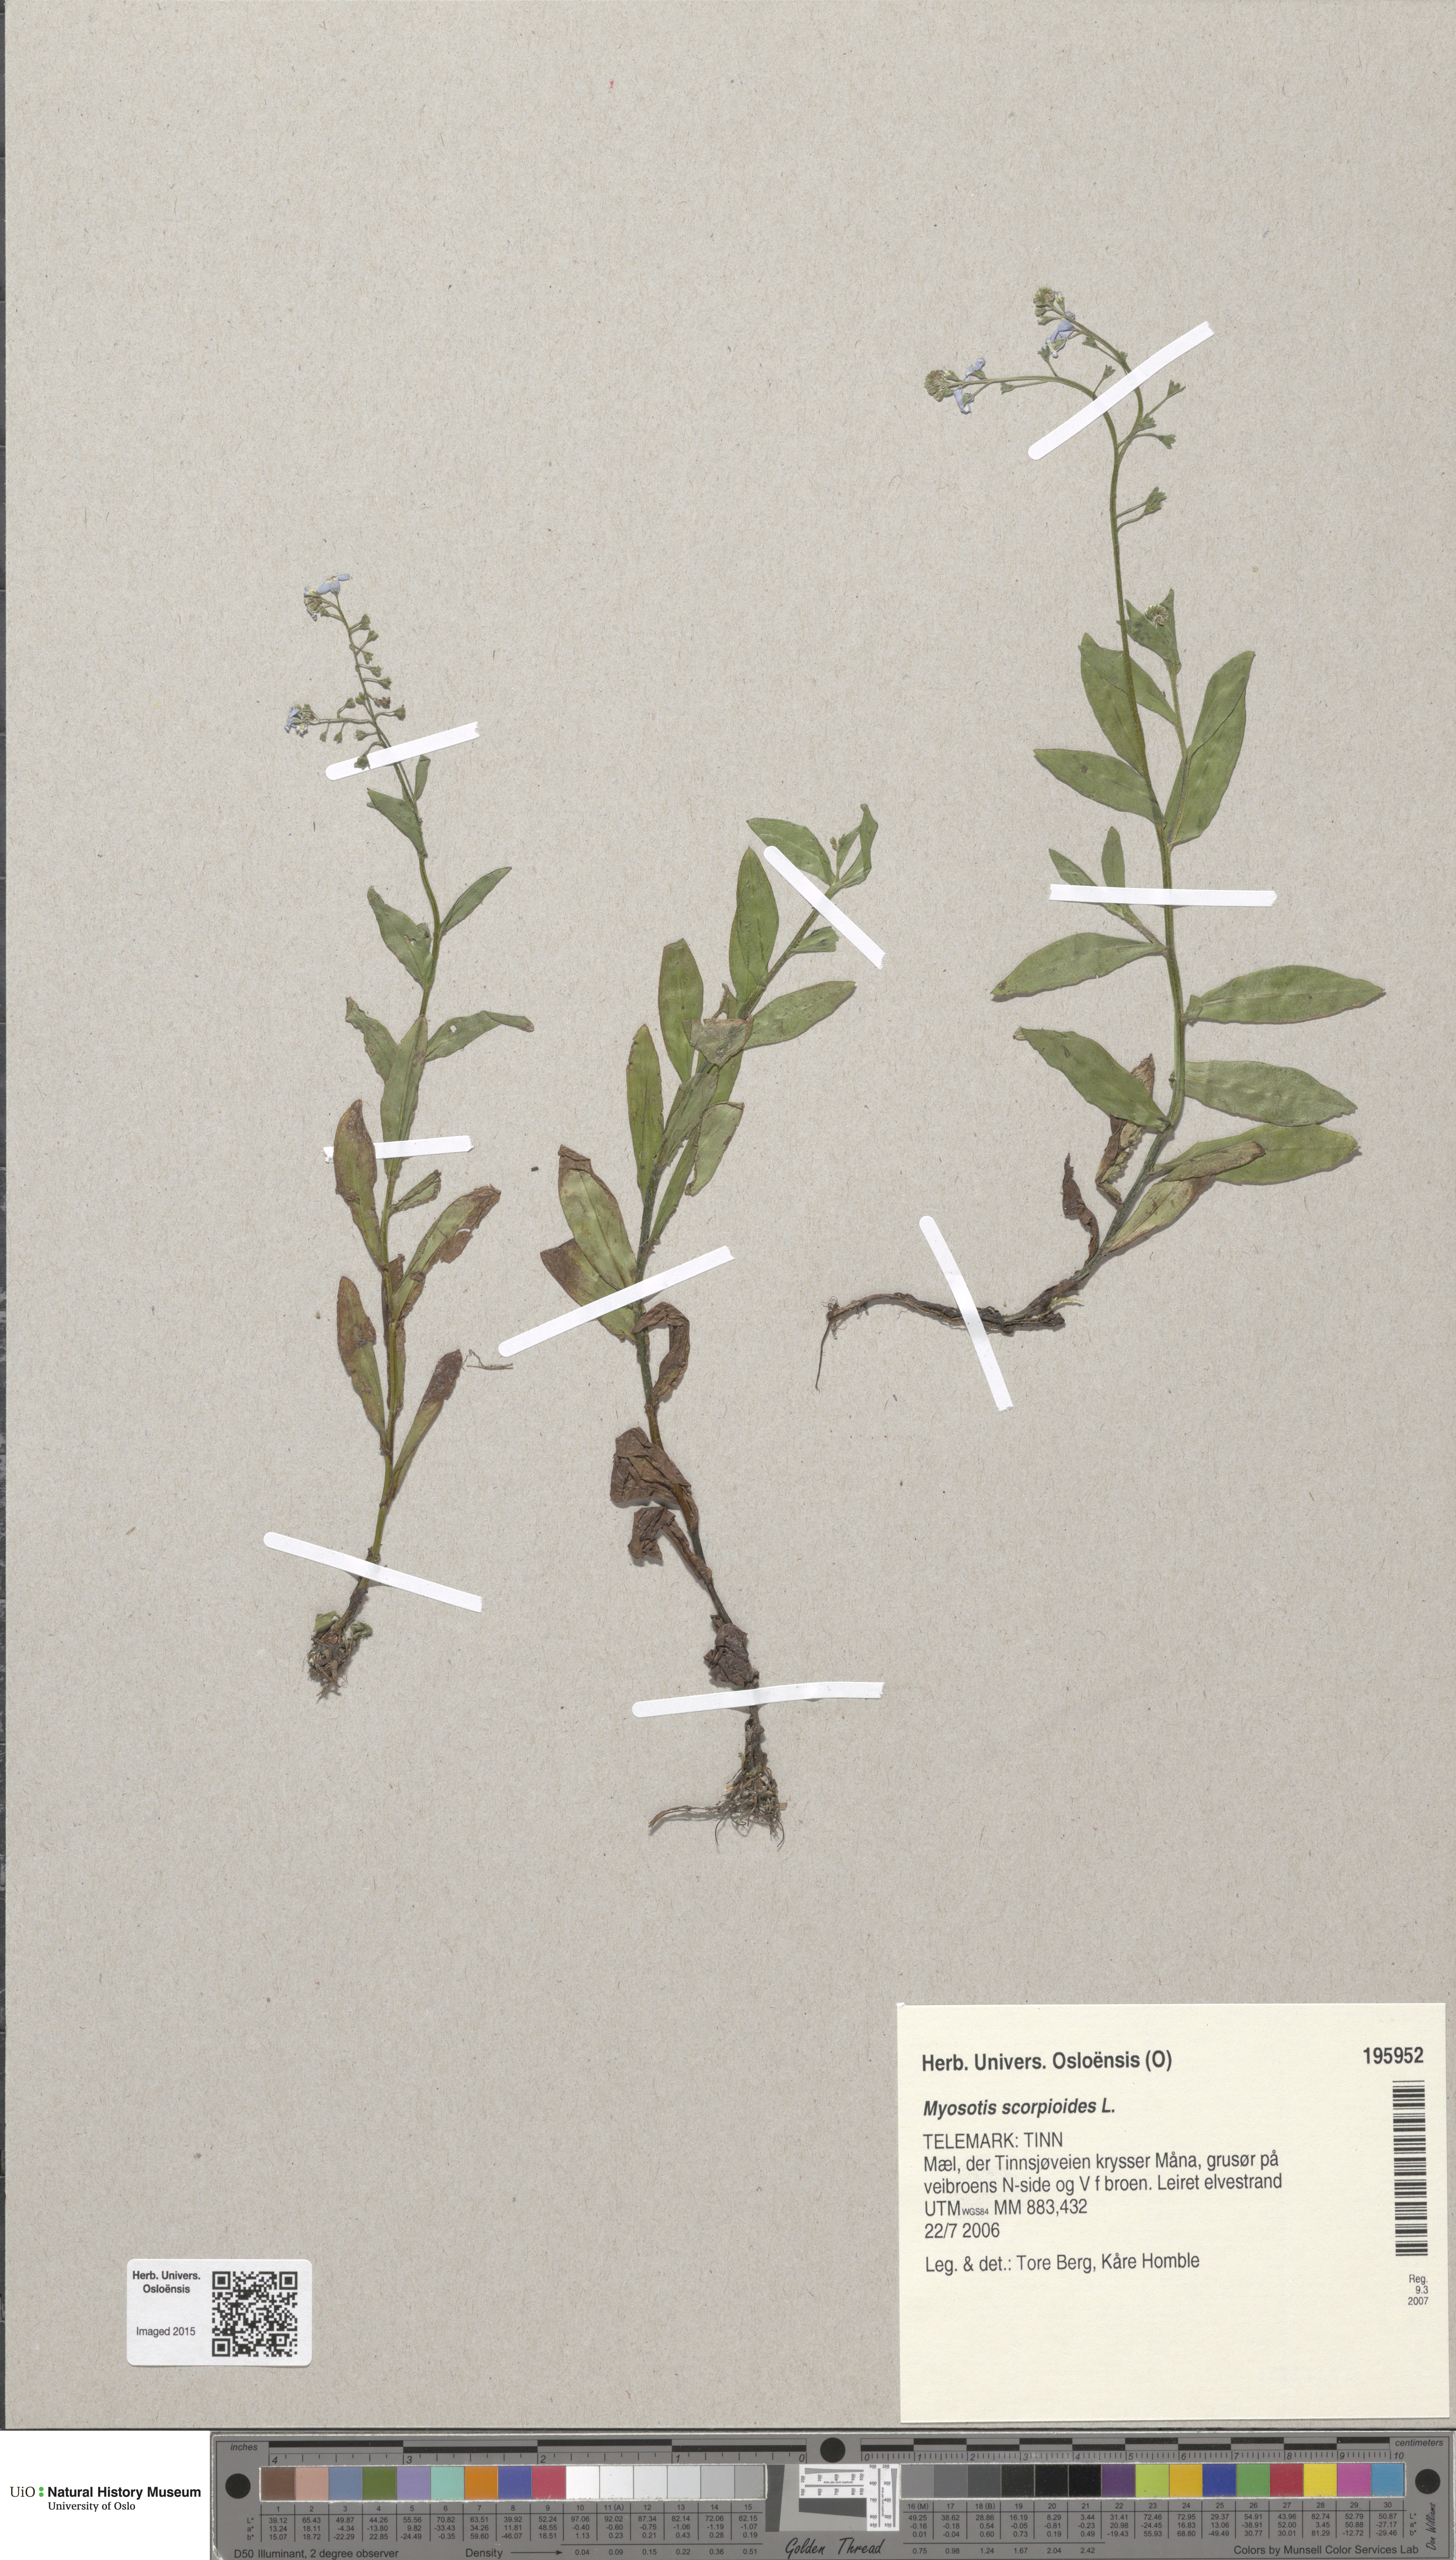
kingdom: Plantae
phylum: Tracheophyta
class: Magnoliopsida
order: Boraginales
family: Boraginaceae
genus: Myosotis
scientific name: Myosotis scorpioides
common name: Water forget-me-not
